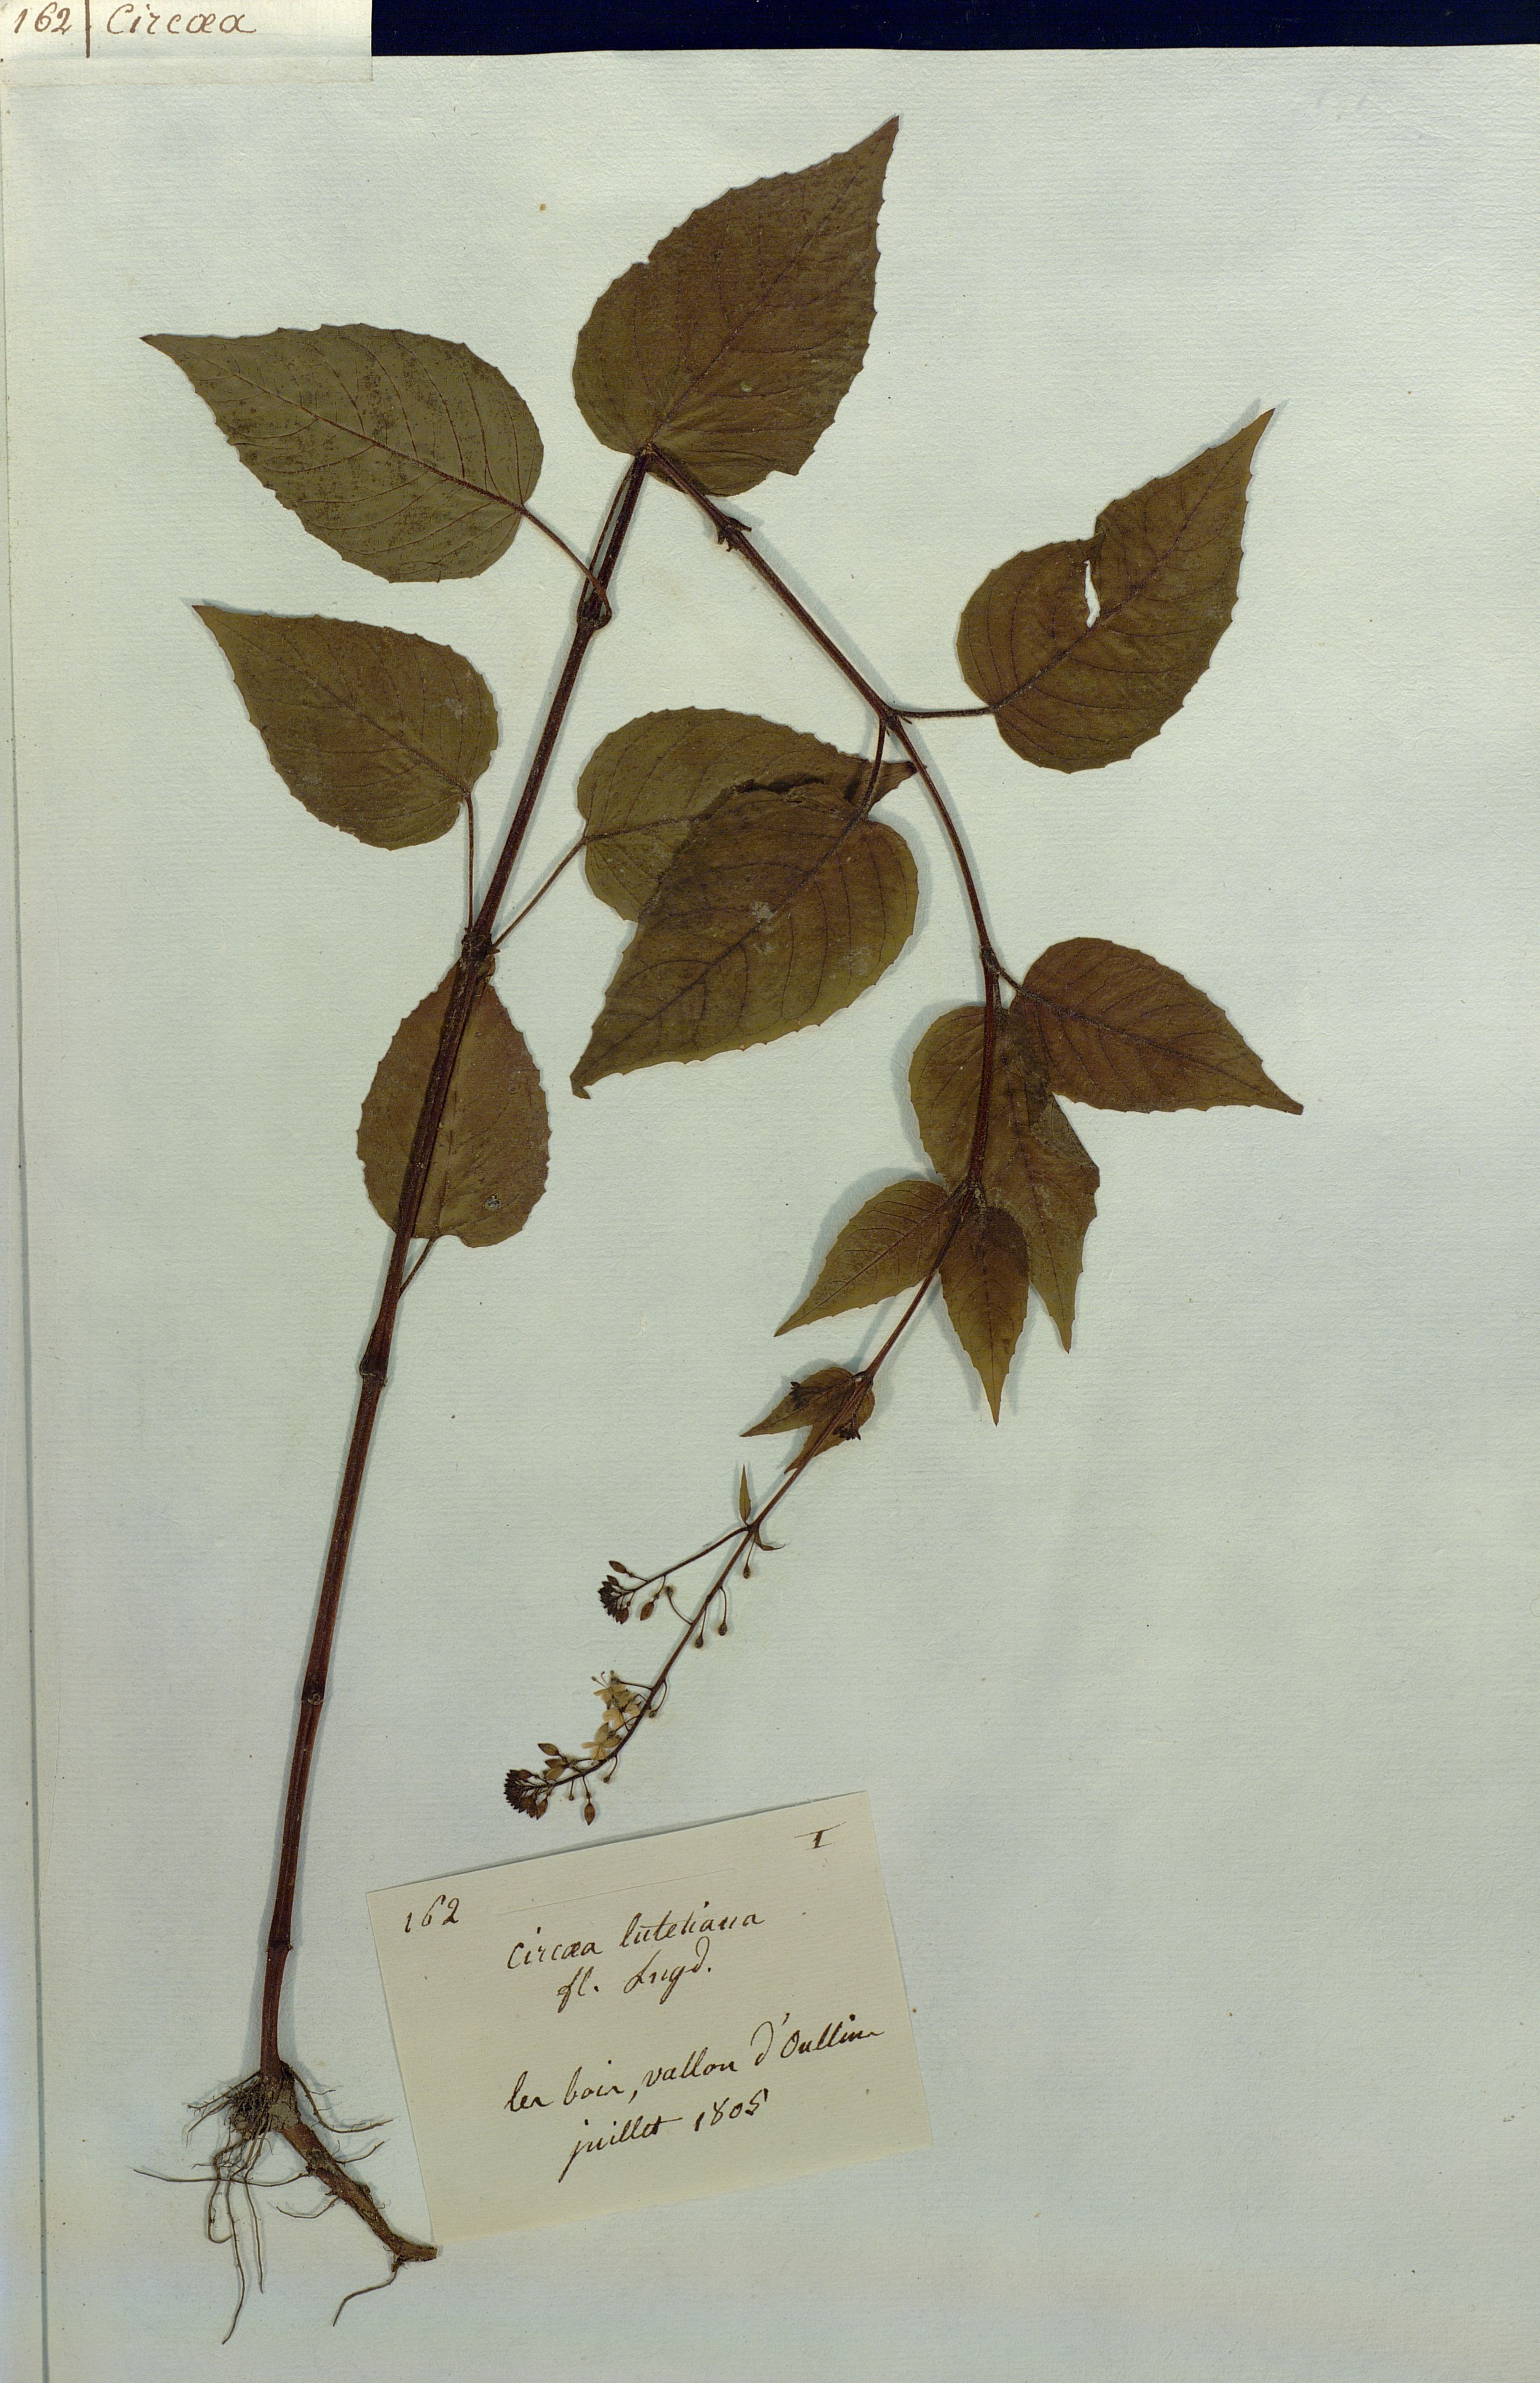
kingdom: Plantae
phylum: Tracheophyta
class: Magnoliopsida
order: Myrtales
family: Onagraceae
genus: Circaea
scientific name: Circaea lutetiana
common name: Enchanter's-nightshade
